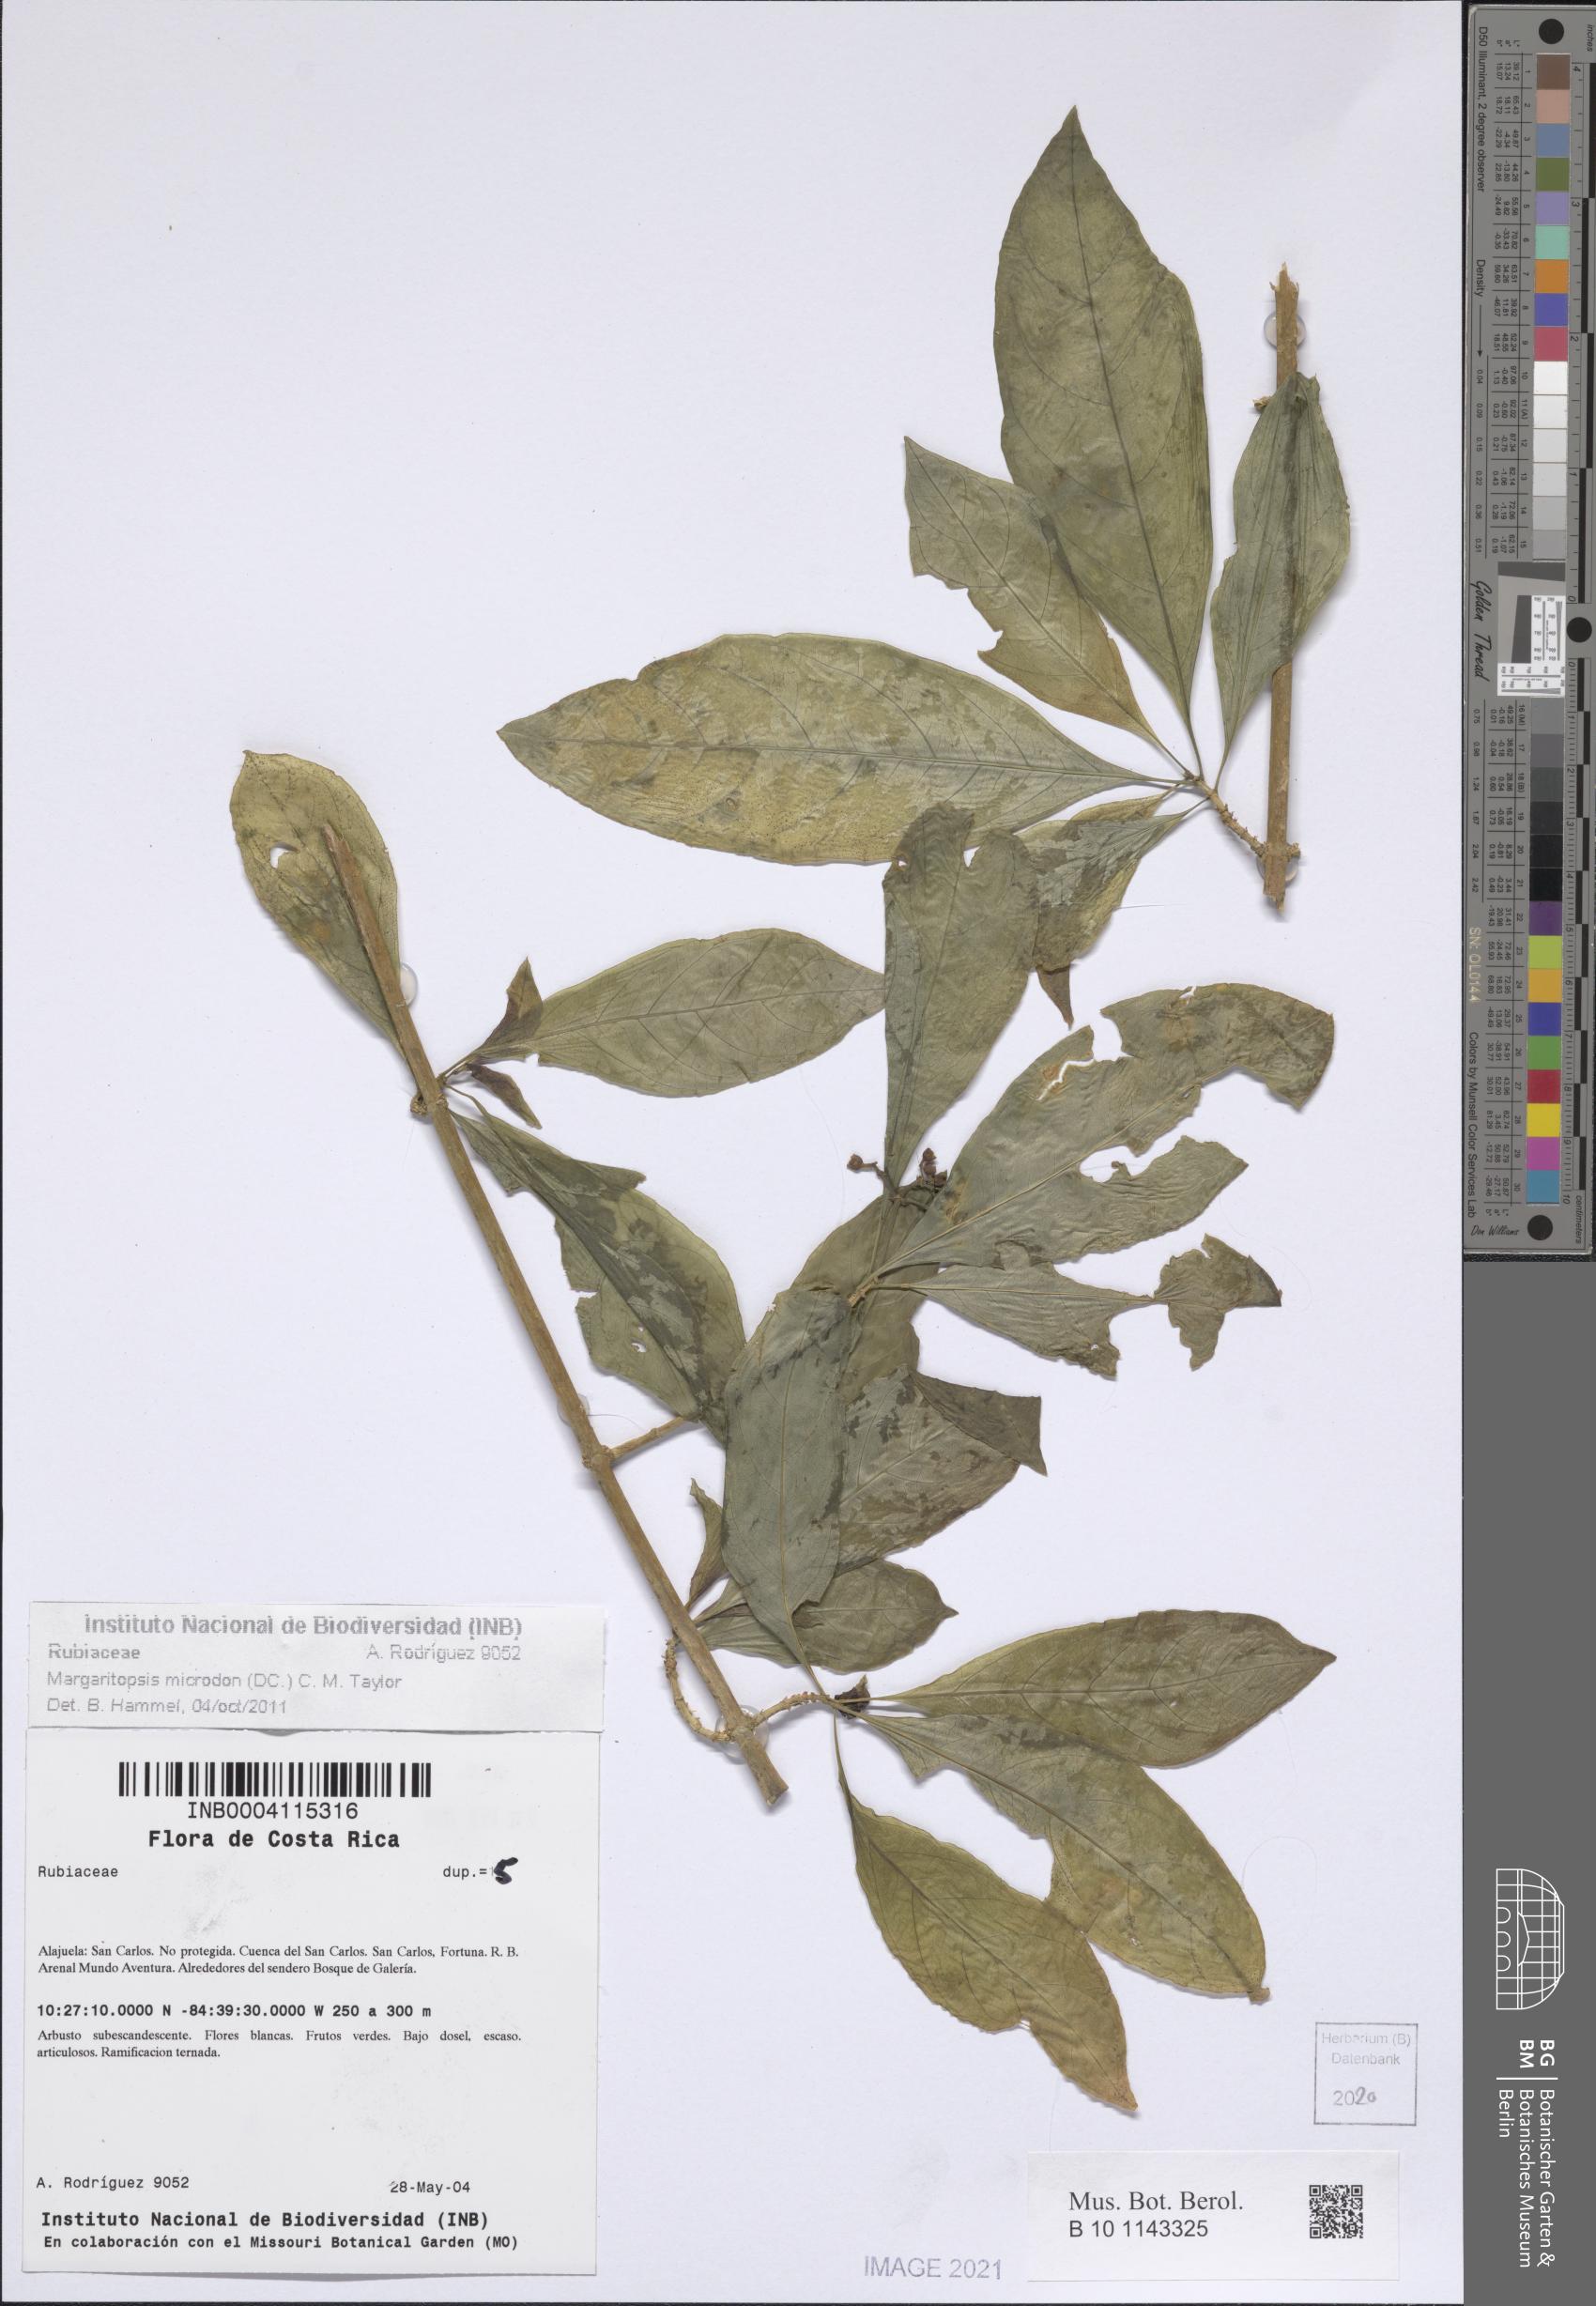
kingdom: Plantae
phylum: Tracheophyta
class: Magnoliopsida
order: Gentianales
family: Rubiaceae
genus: Eumachia
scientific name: Eumachia microdon
